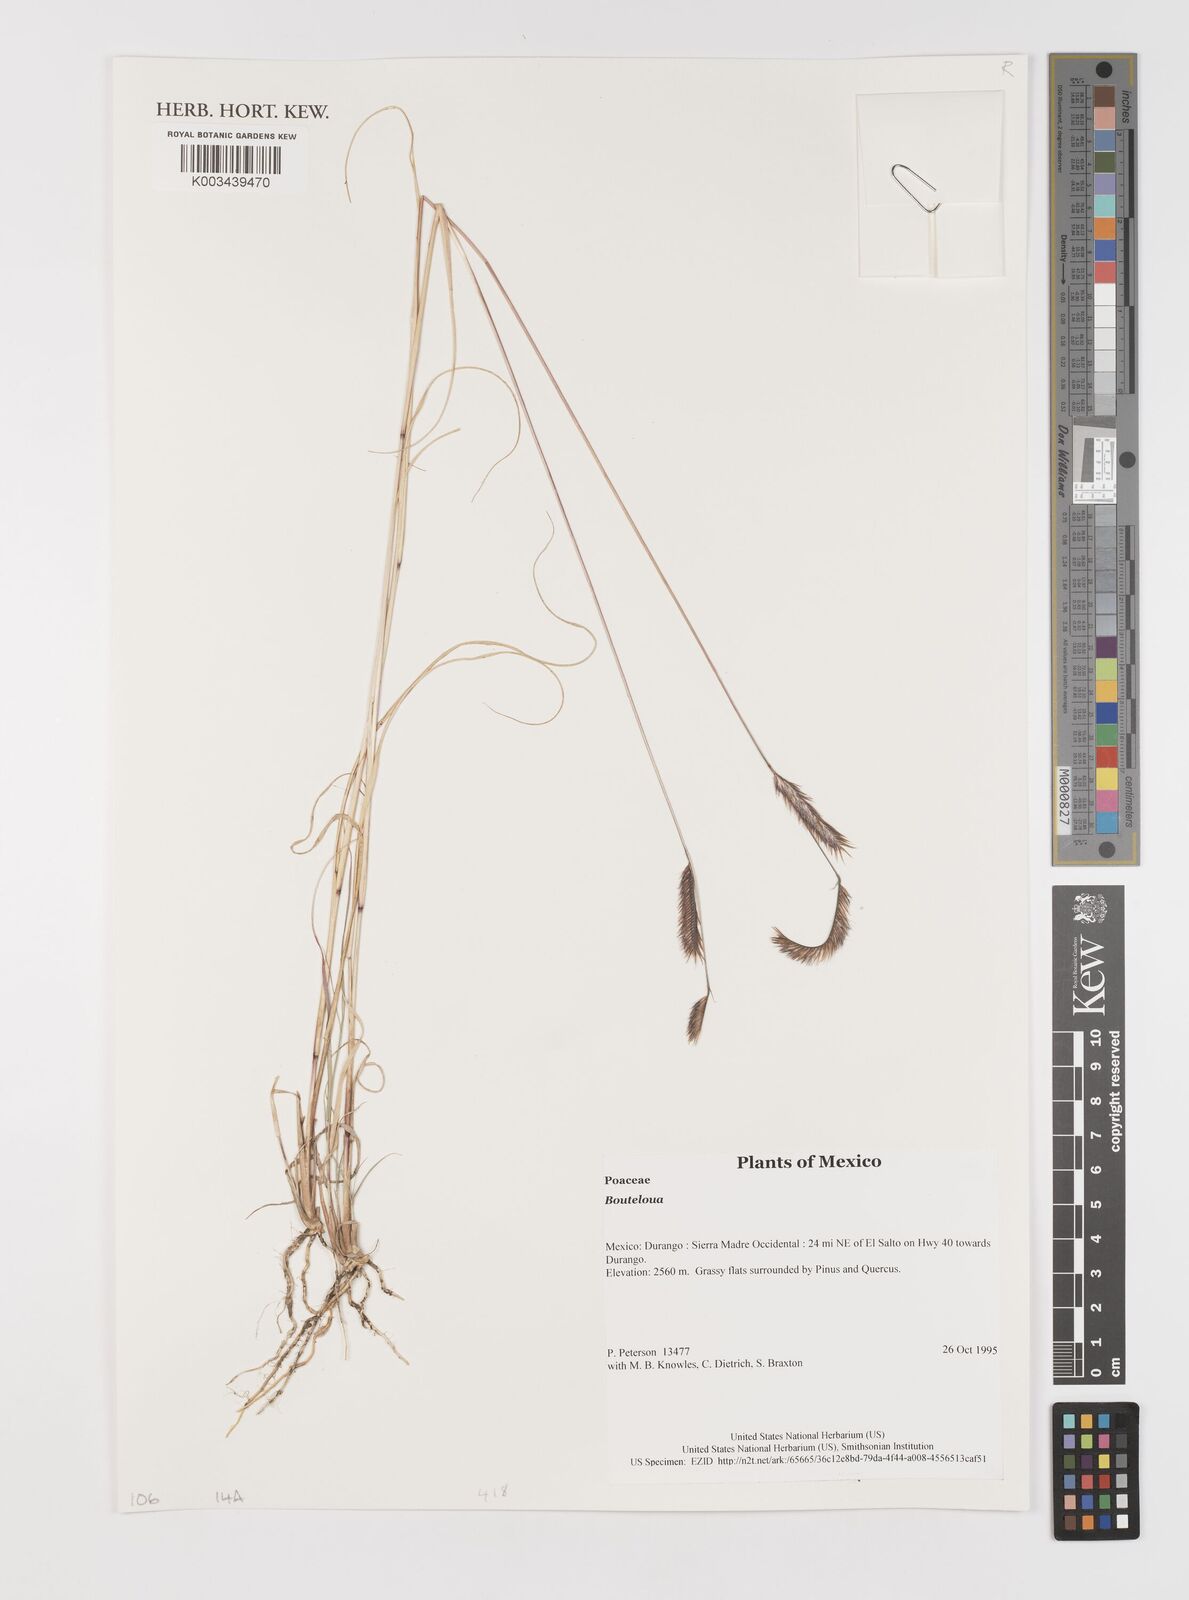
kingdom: Plantae
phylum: Tracheophyta
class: Liliopsida
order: Poales
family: Poaceae
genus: Bouteloua
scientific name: Bouteloua
